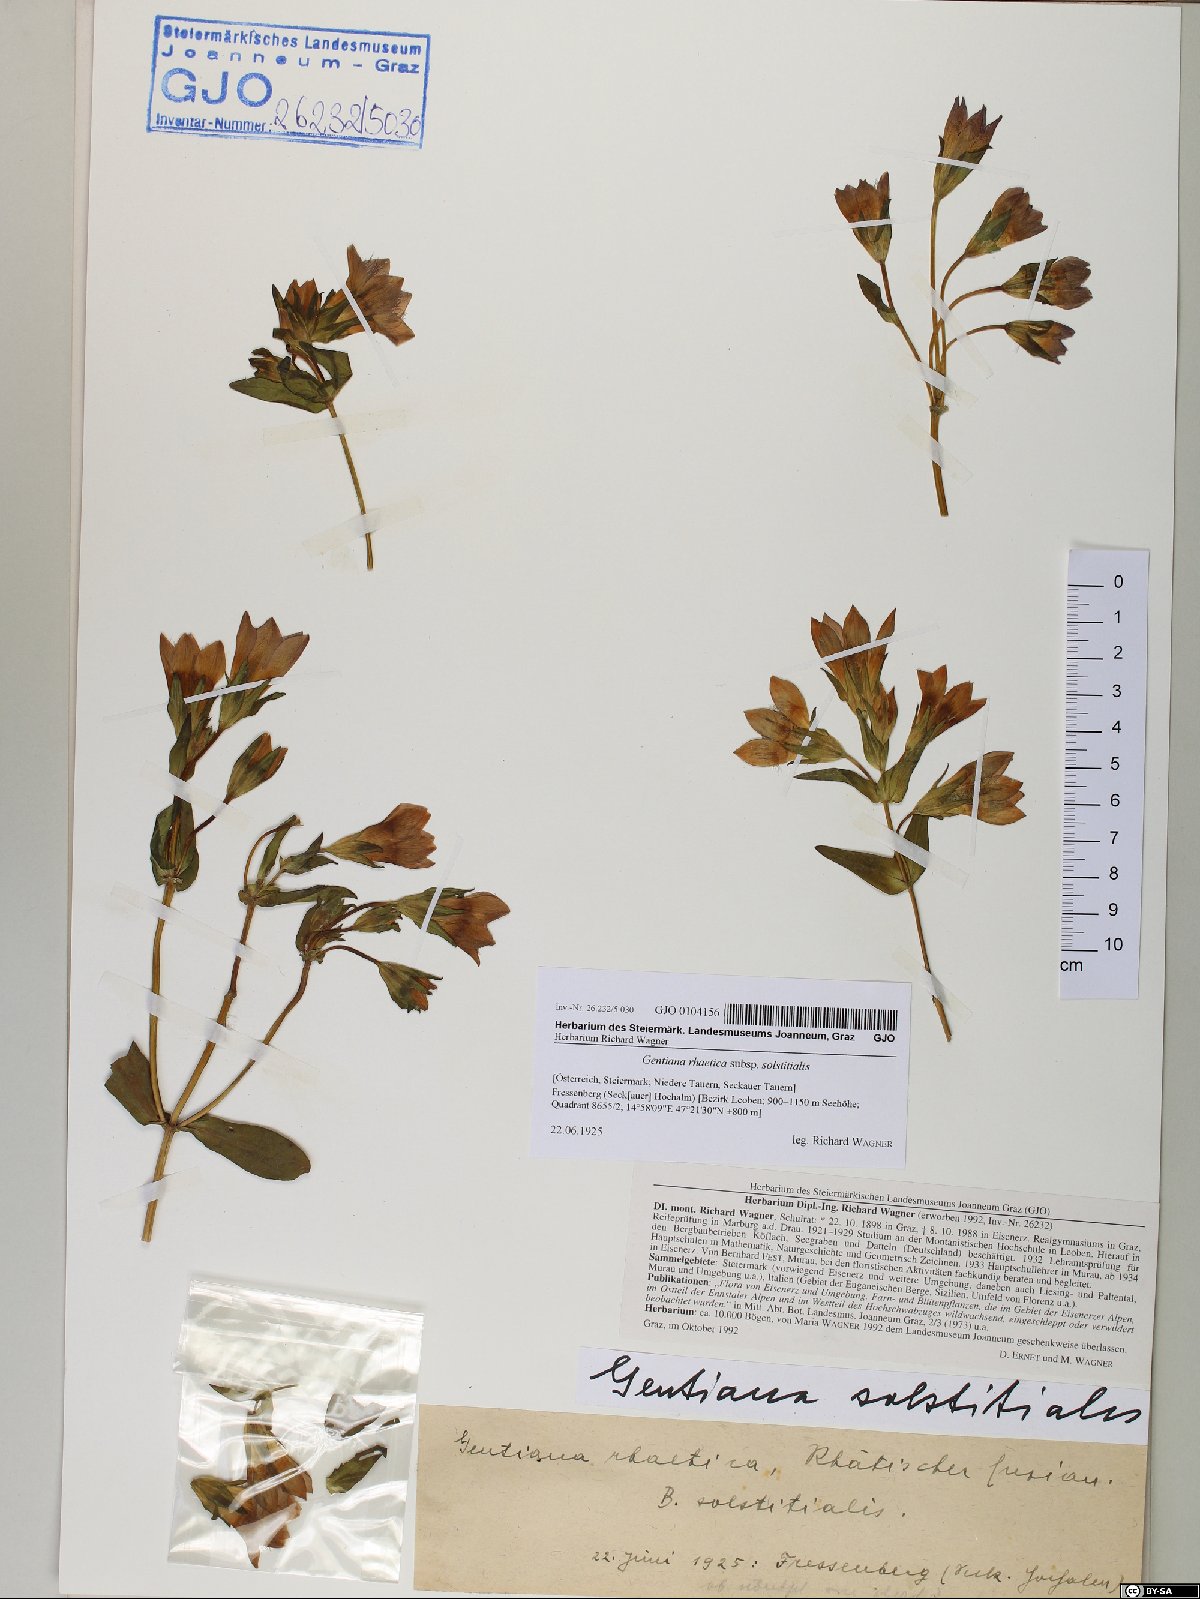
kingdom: Plantae
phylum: Tracheophyta
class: Magnoliopsida
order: Gentianales
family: Gentianaceae
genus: Gentianella
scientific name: Gentianella germanica
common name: Chiltern-gentian
